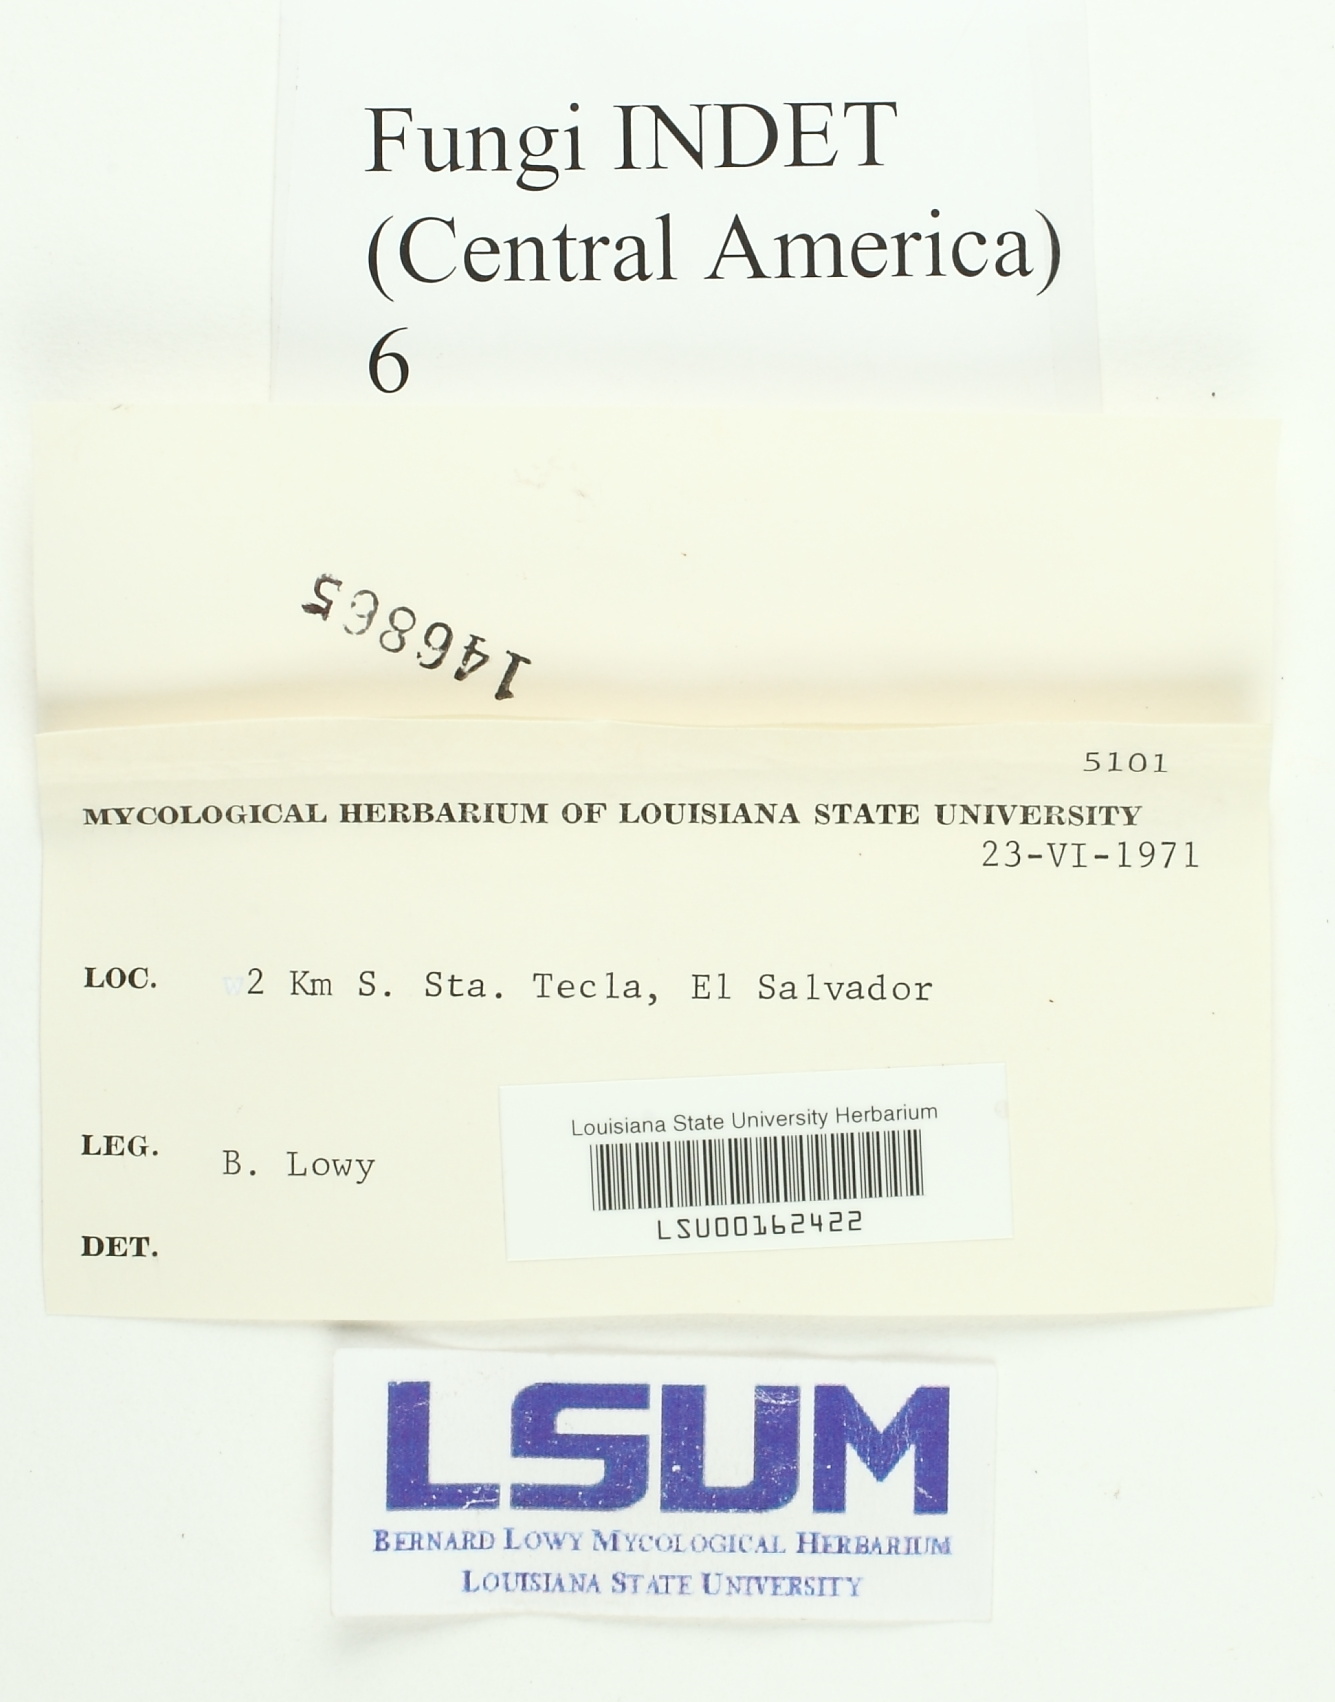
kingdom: Fungi
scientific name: Fungi
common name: Fungi
